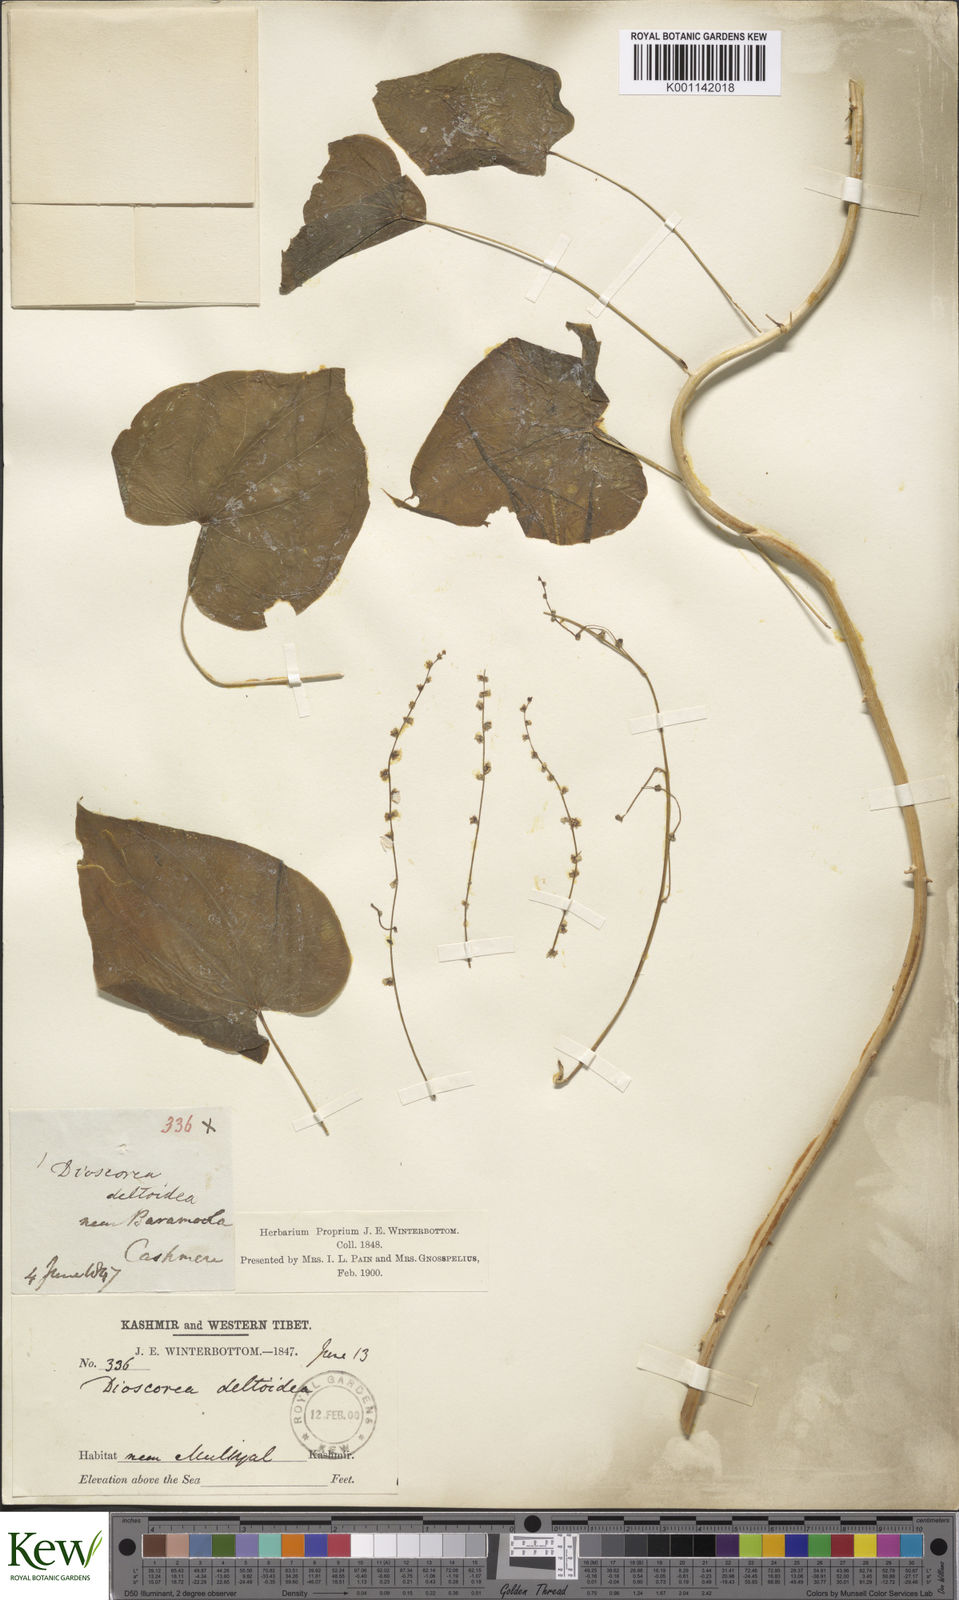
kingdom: Plantae
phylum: Tracheophyta
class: Liliopsida
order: Dioscoreales
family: Dioscoreaceae
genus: Dioscorea
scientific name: Dioscorea deltoidea
